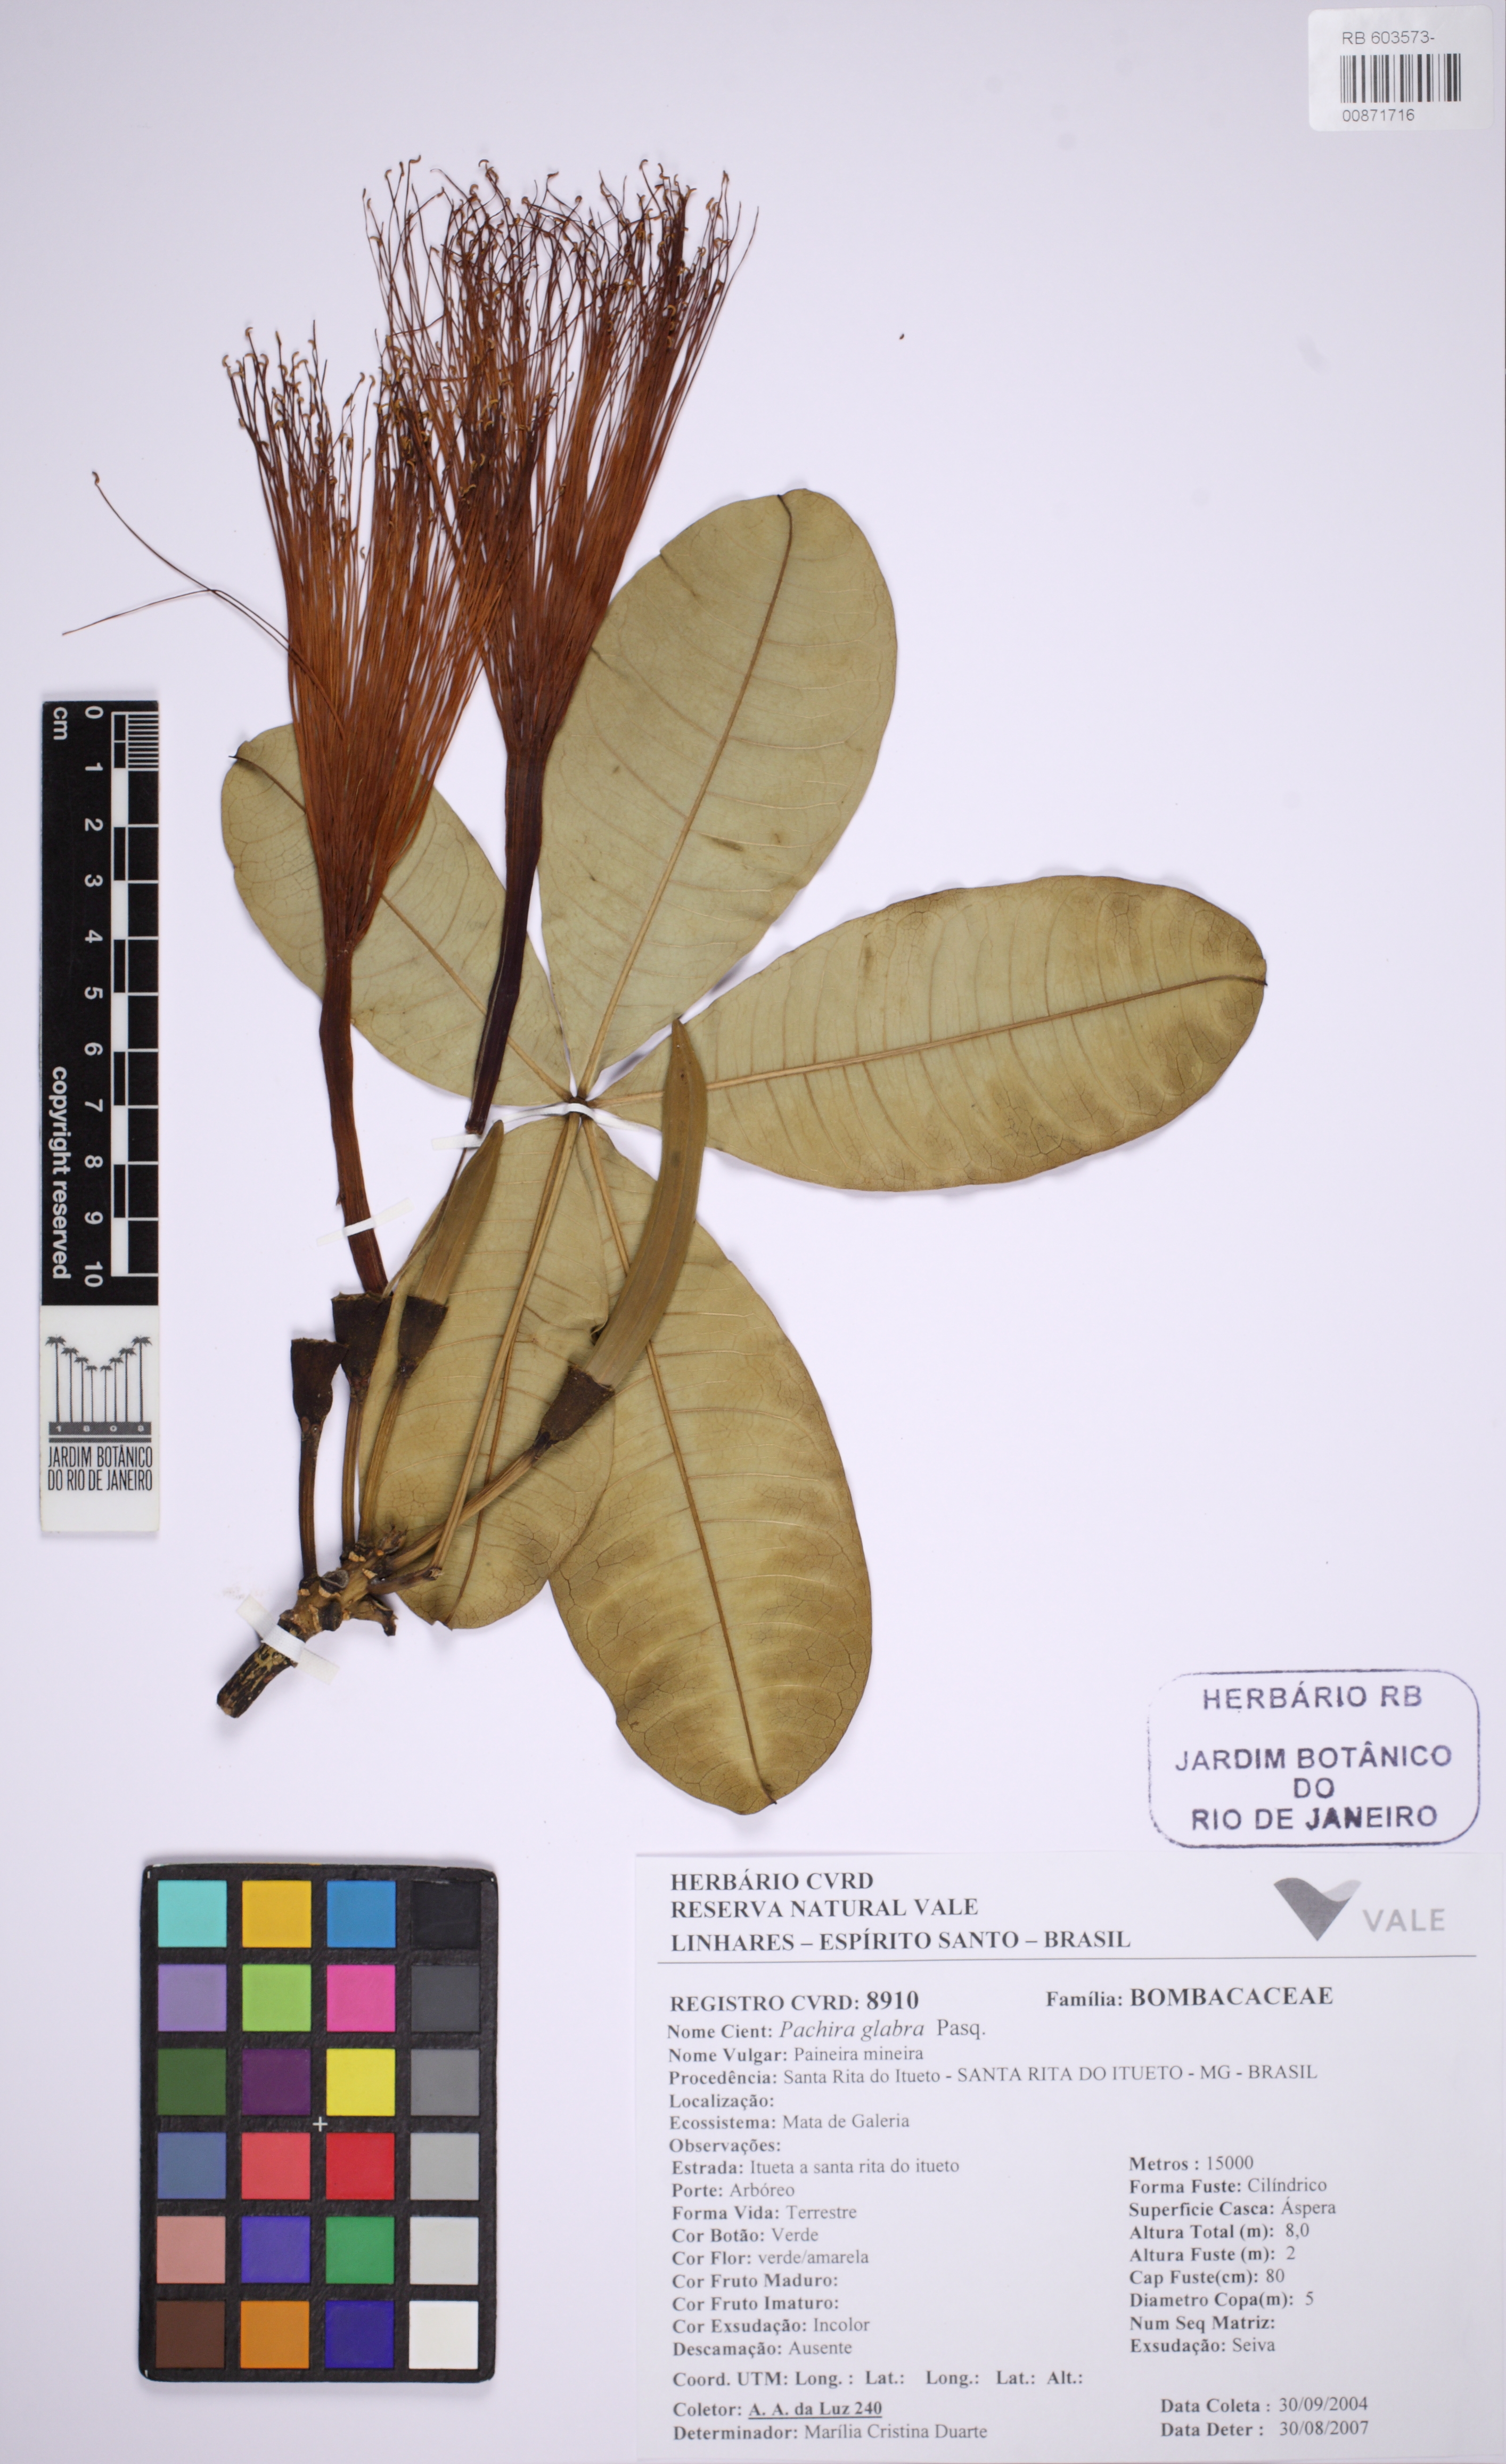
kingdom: Plantae
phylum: Tracheophyta
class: Magnoliopsida
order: Malvales
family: Malvaceae
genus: Pachira
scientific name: Pachira glabra
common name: Moneytree
